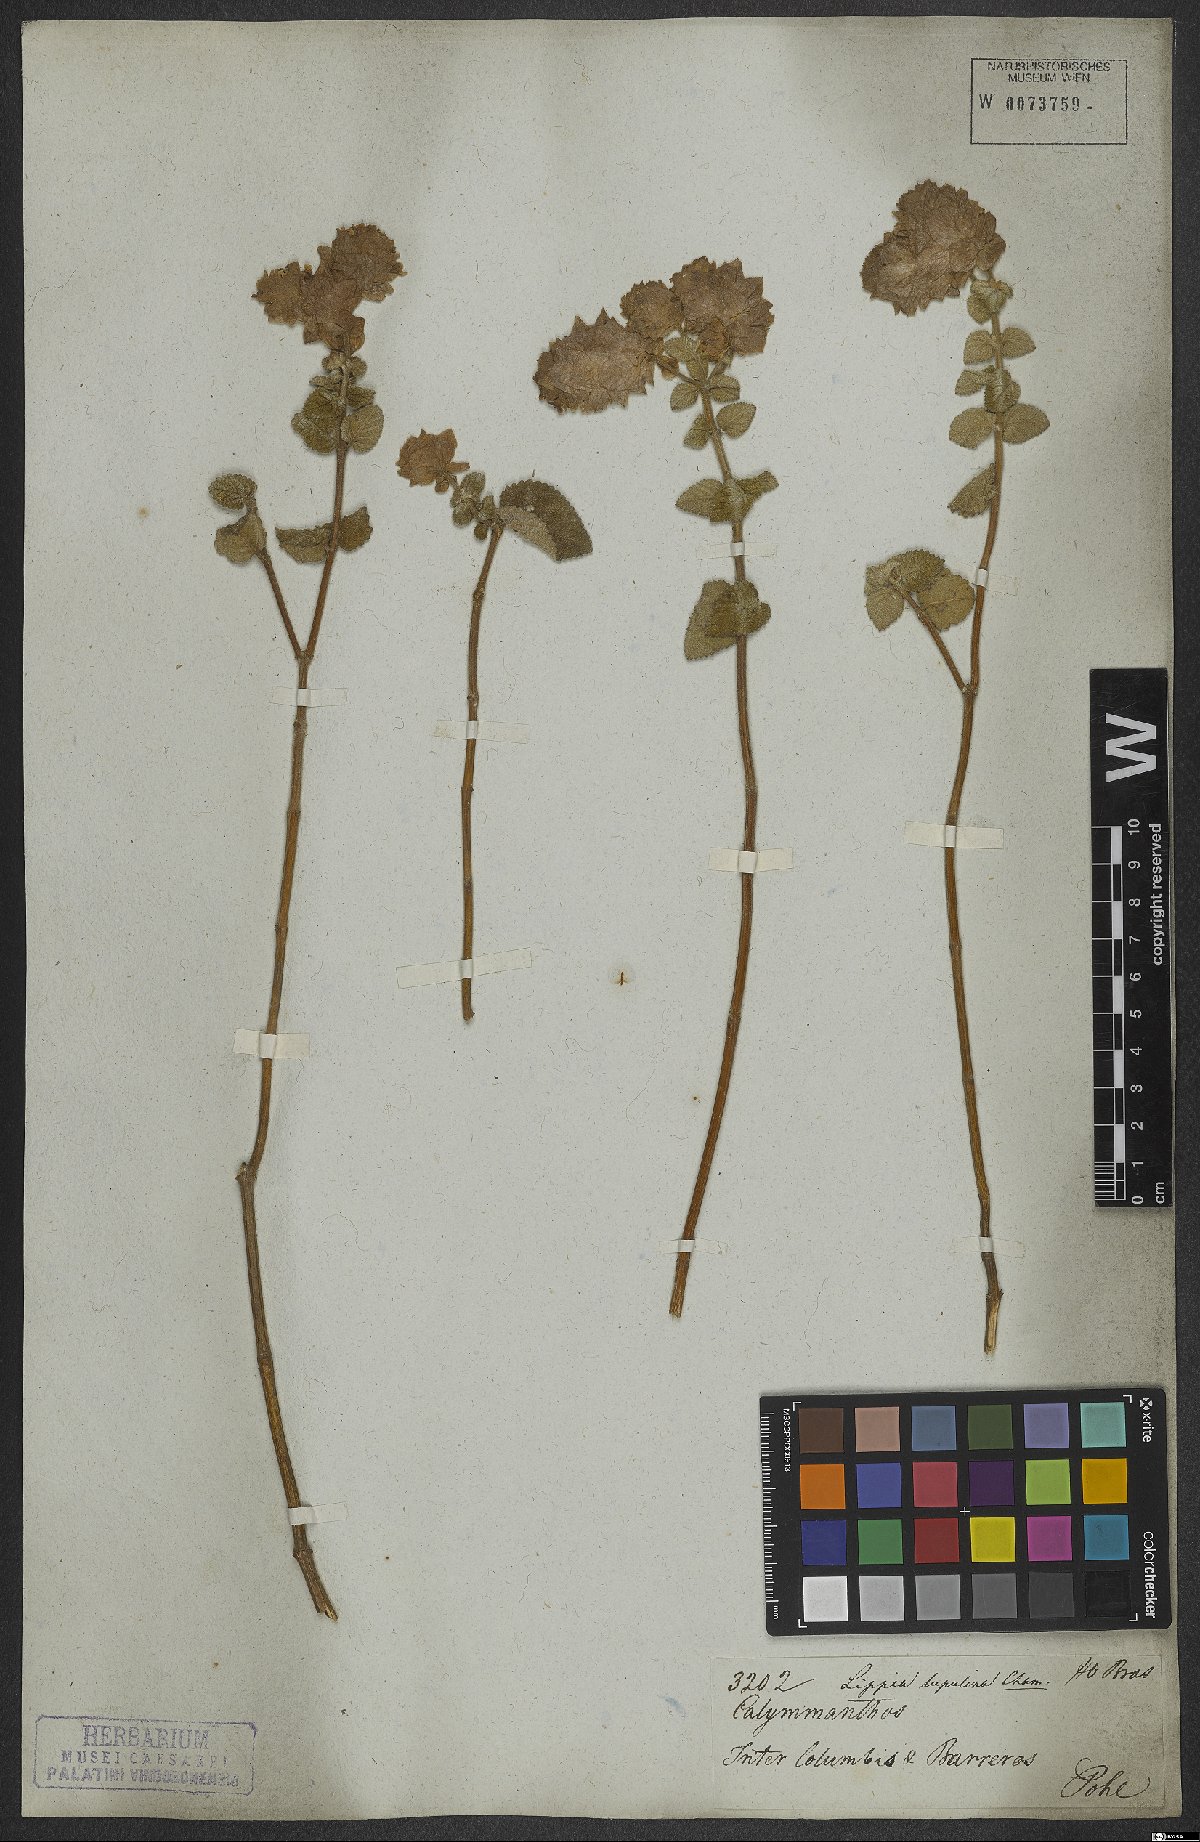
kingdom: Plantae
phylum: Tracheophyta
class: Magnoliopsida
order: Lamiales
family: Verbenaceae
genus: Lippia
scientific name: Lippia lupulina
